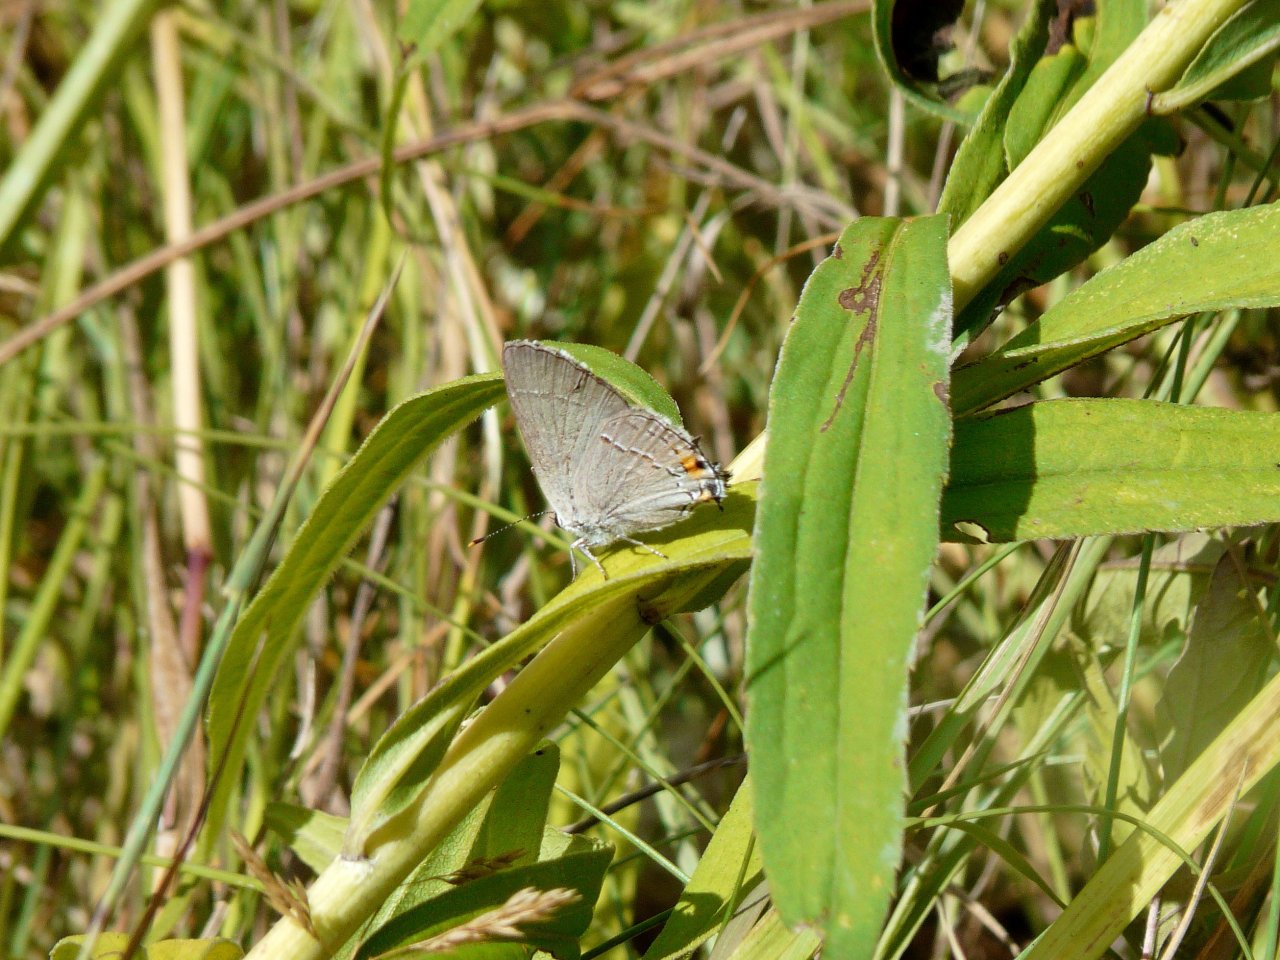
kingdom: Animalia
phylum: Arthropoda
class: Insecta
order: Lepidoptera
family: Lycaenidae
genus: Strymon
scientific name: Strymon melinus
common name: Gray Hairstreak
